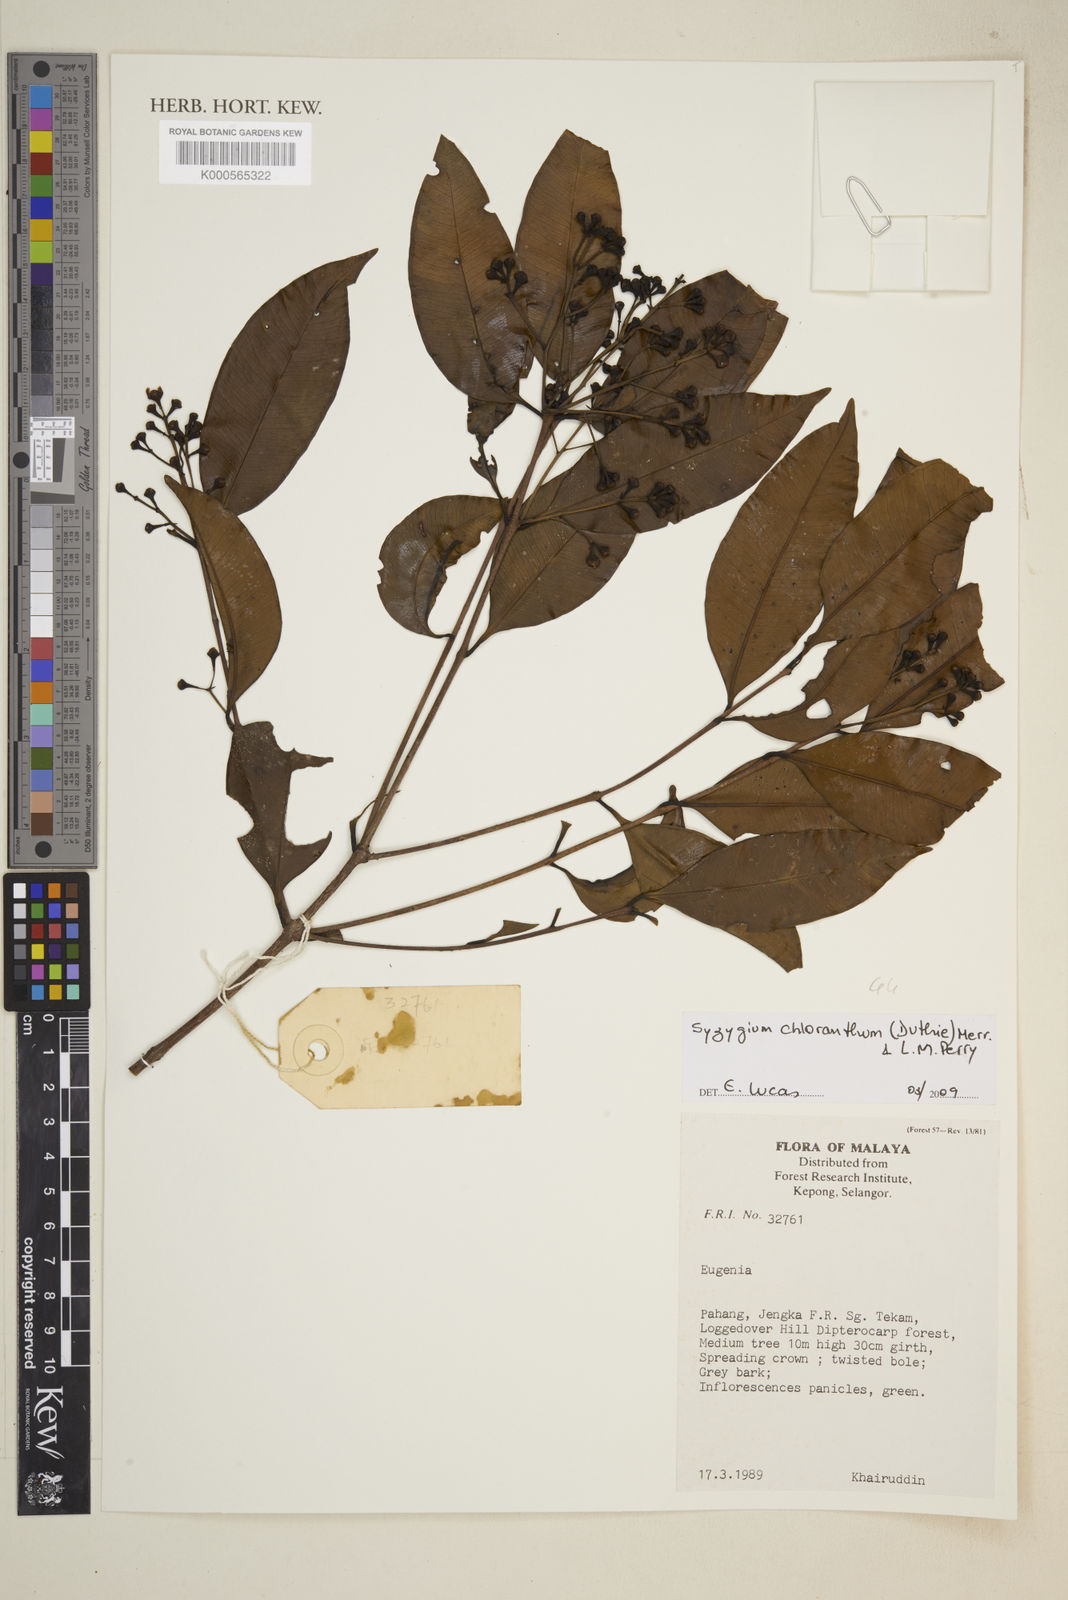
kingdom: Plantae
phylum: Tracheophyta
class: Magnoliopsida
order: Myrtales
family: Myrtaceae
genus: Syzygium
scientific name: Syzygium chloranthum
